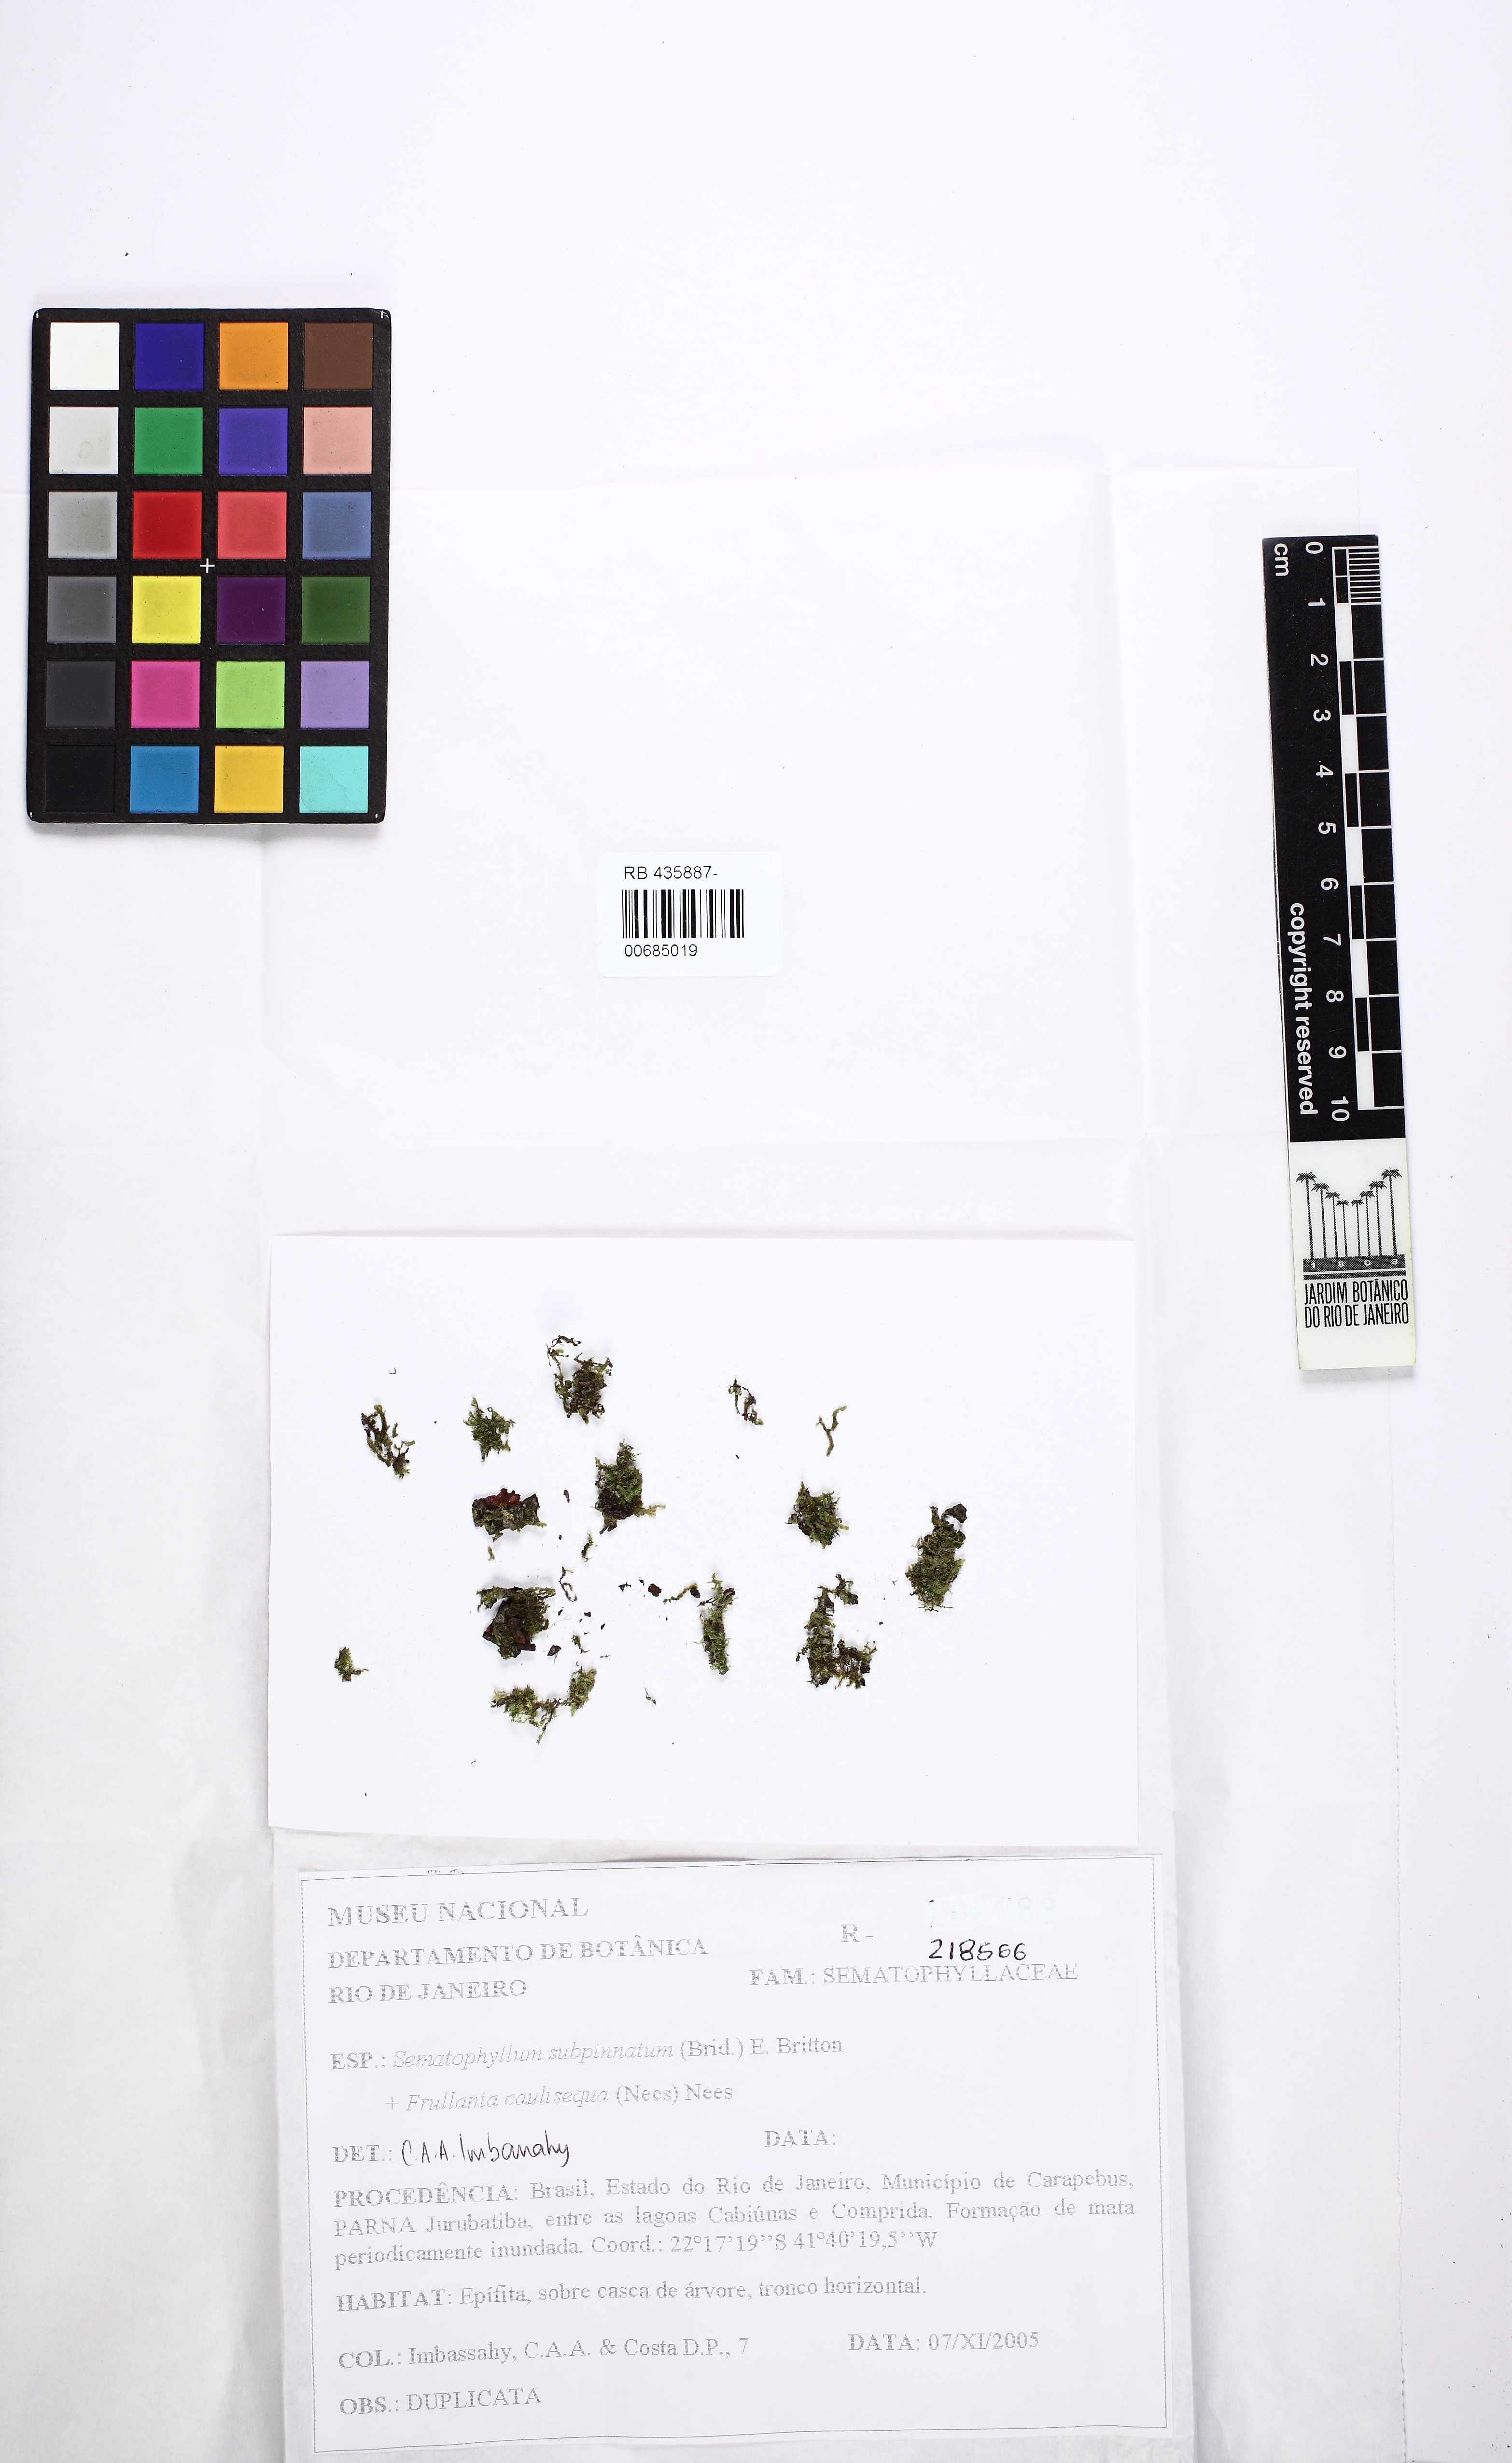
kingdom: Plantae
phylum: Bryophyta
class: Bryopsida
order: Hypnales
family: Sematophyllaceae
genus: Brittonodoxa
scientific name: Brittonodoxa subpinnata
